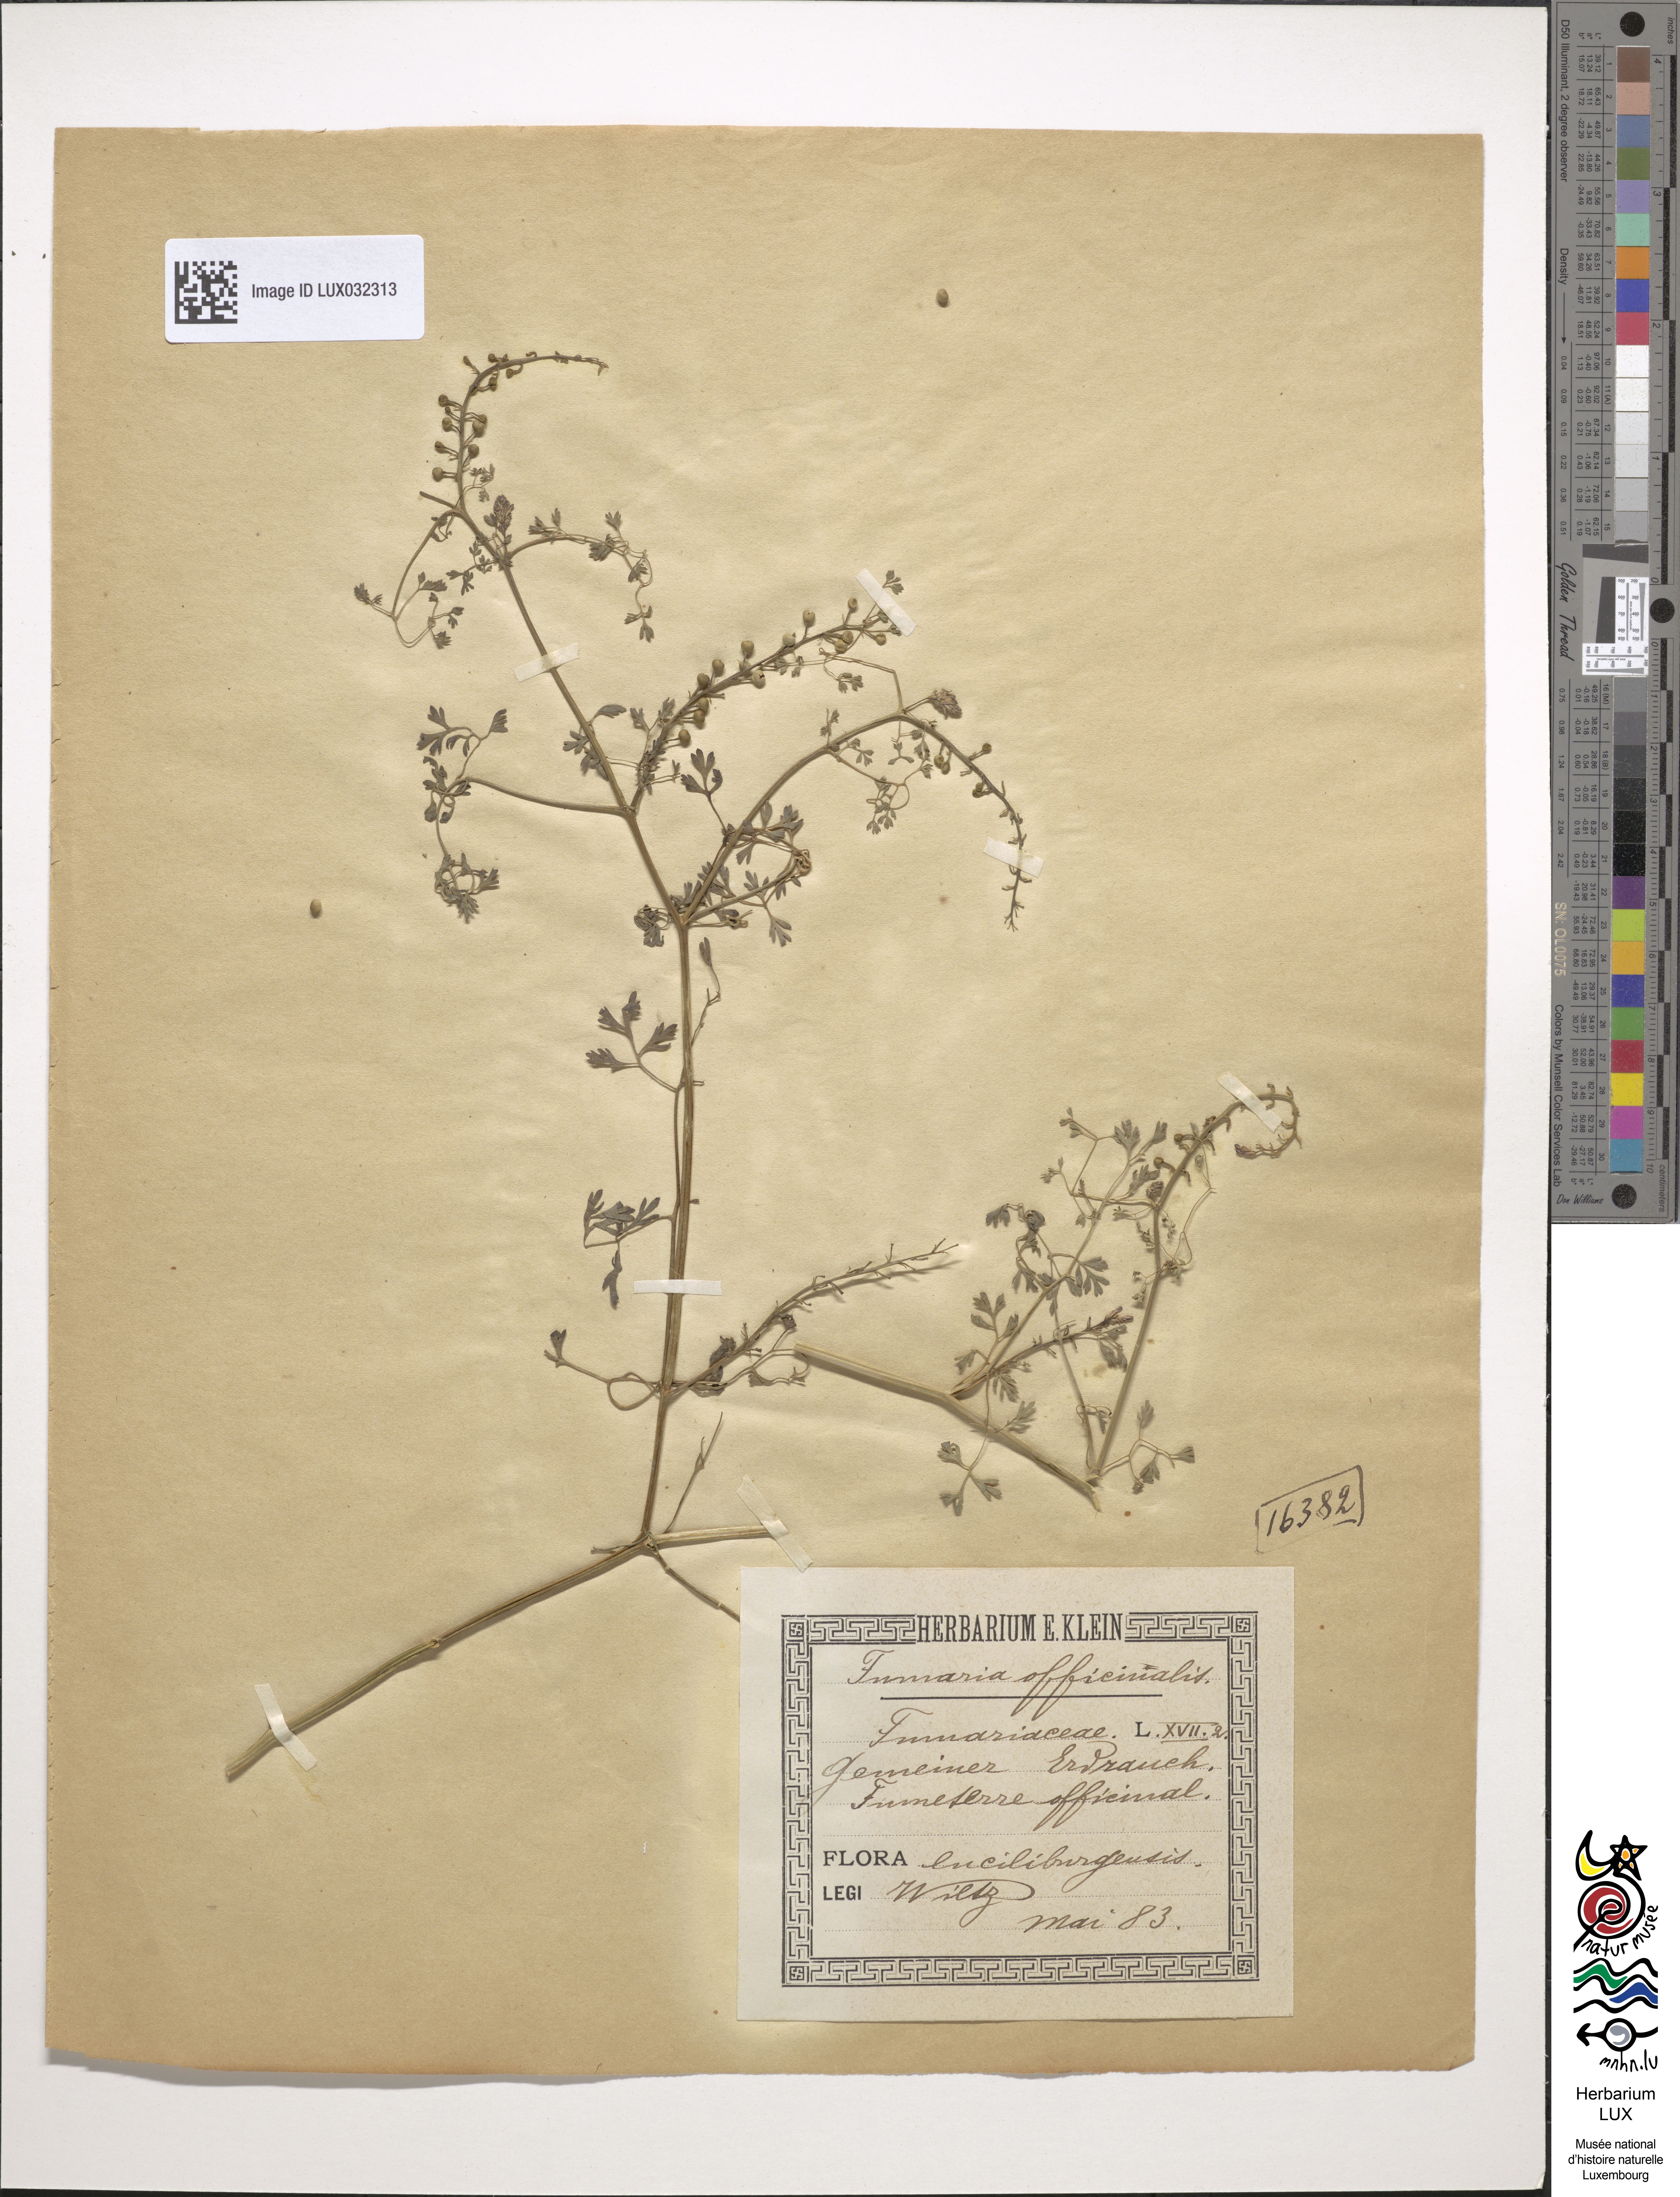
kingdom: Plantae
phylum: Tracheophyta
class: Magnoliopsida
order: Ranunculales
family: Papaveraceae
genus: Fumaria
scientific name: Fumaria officinalis
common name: Common fumitory
